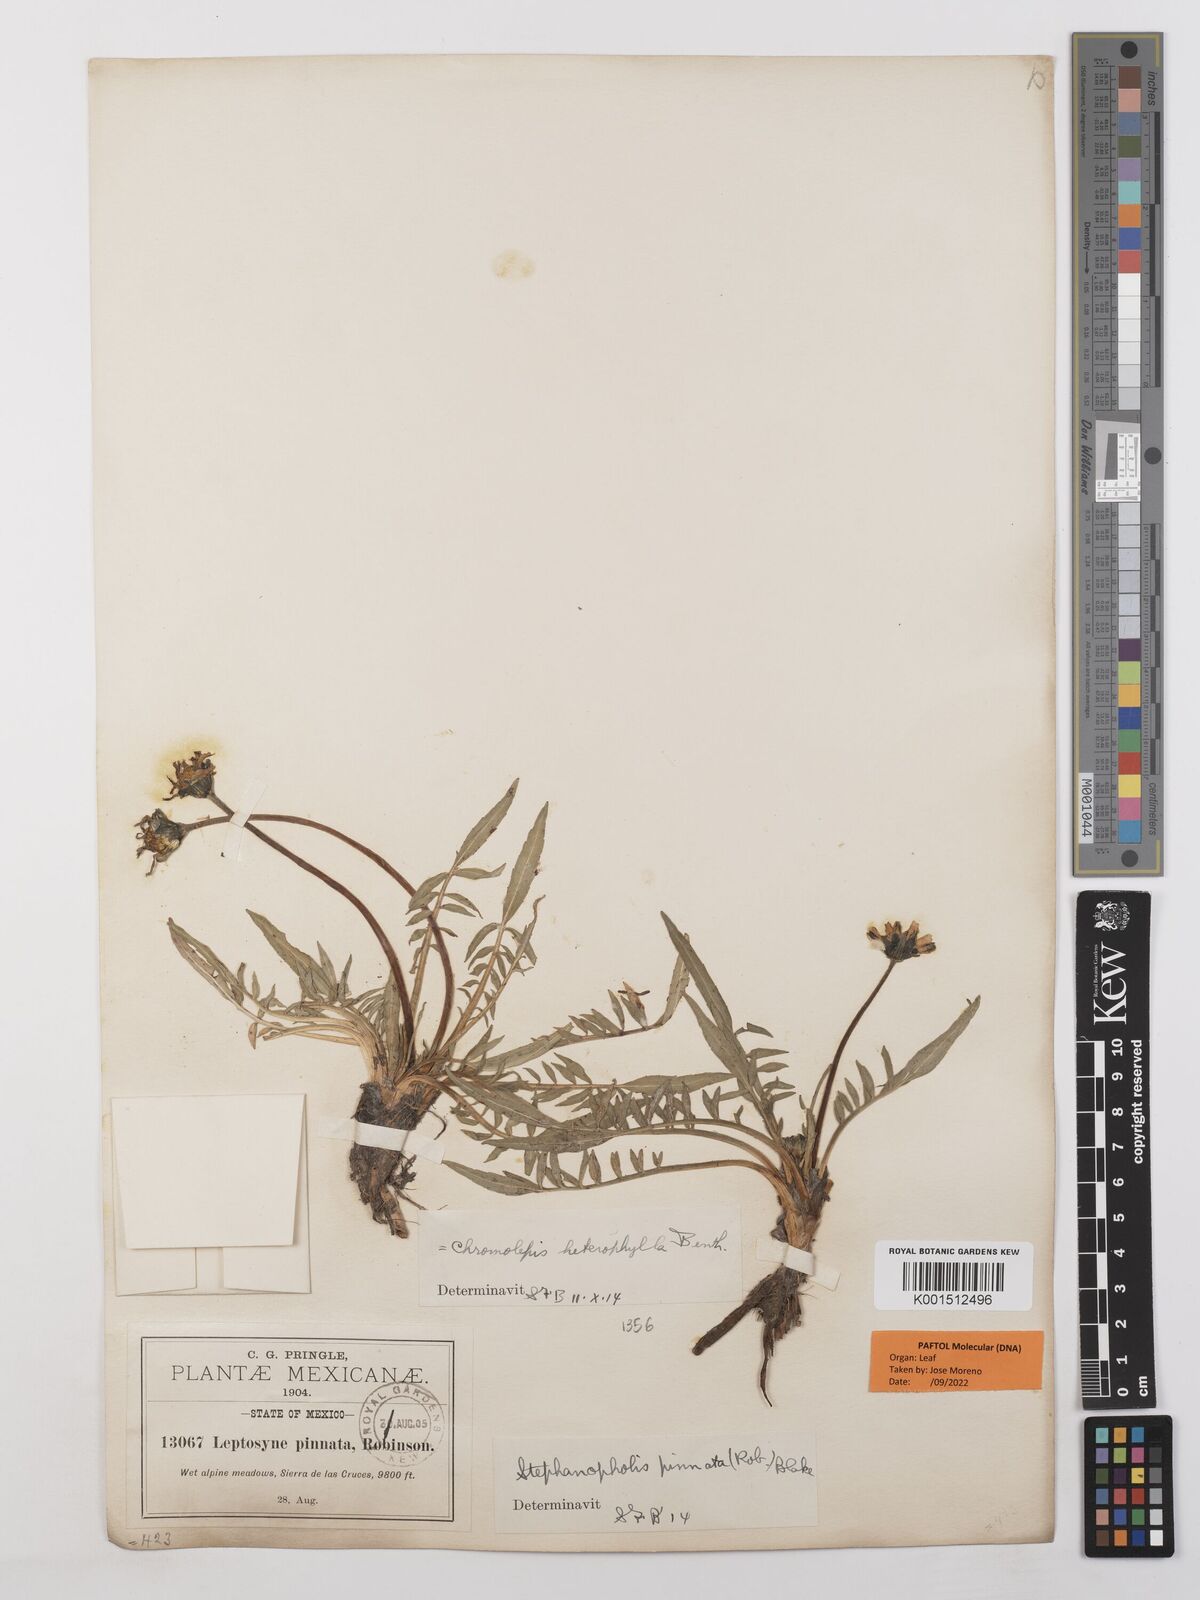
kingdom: Plantae
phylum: Tracheophyta
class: Magnoliopsida
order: Asterales
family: Asteraceae
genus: Chromolepis
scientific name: Chromolepis heterophylla
